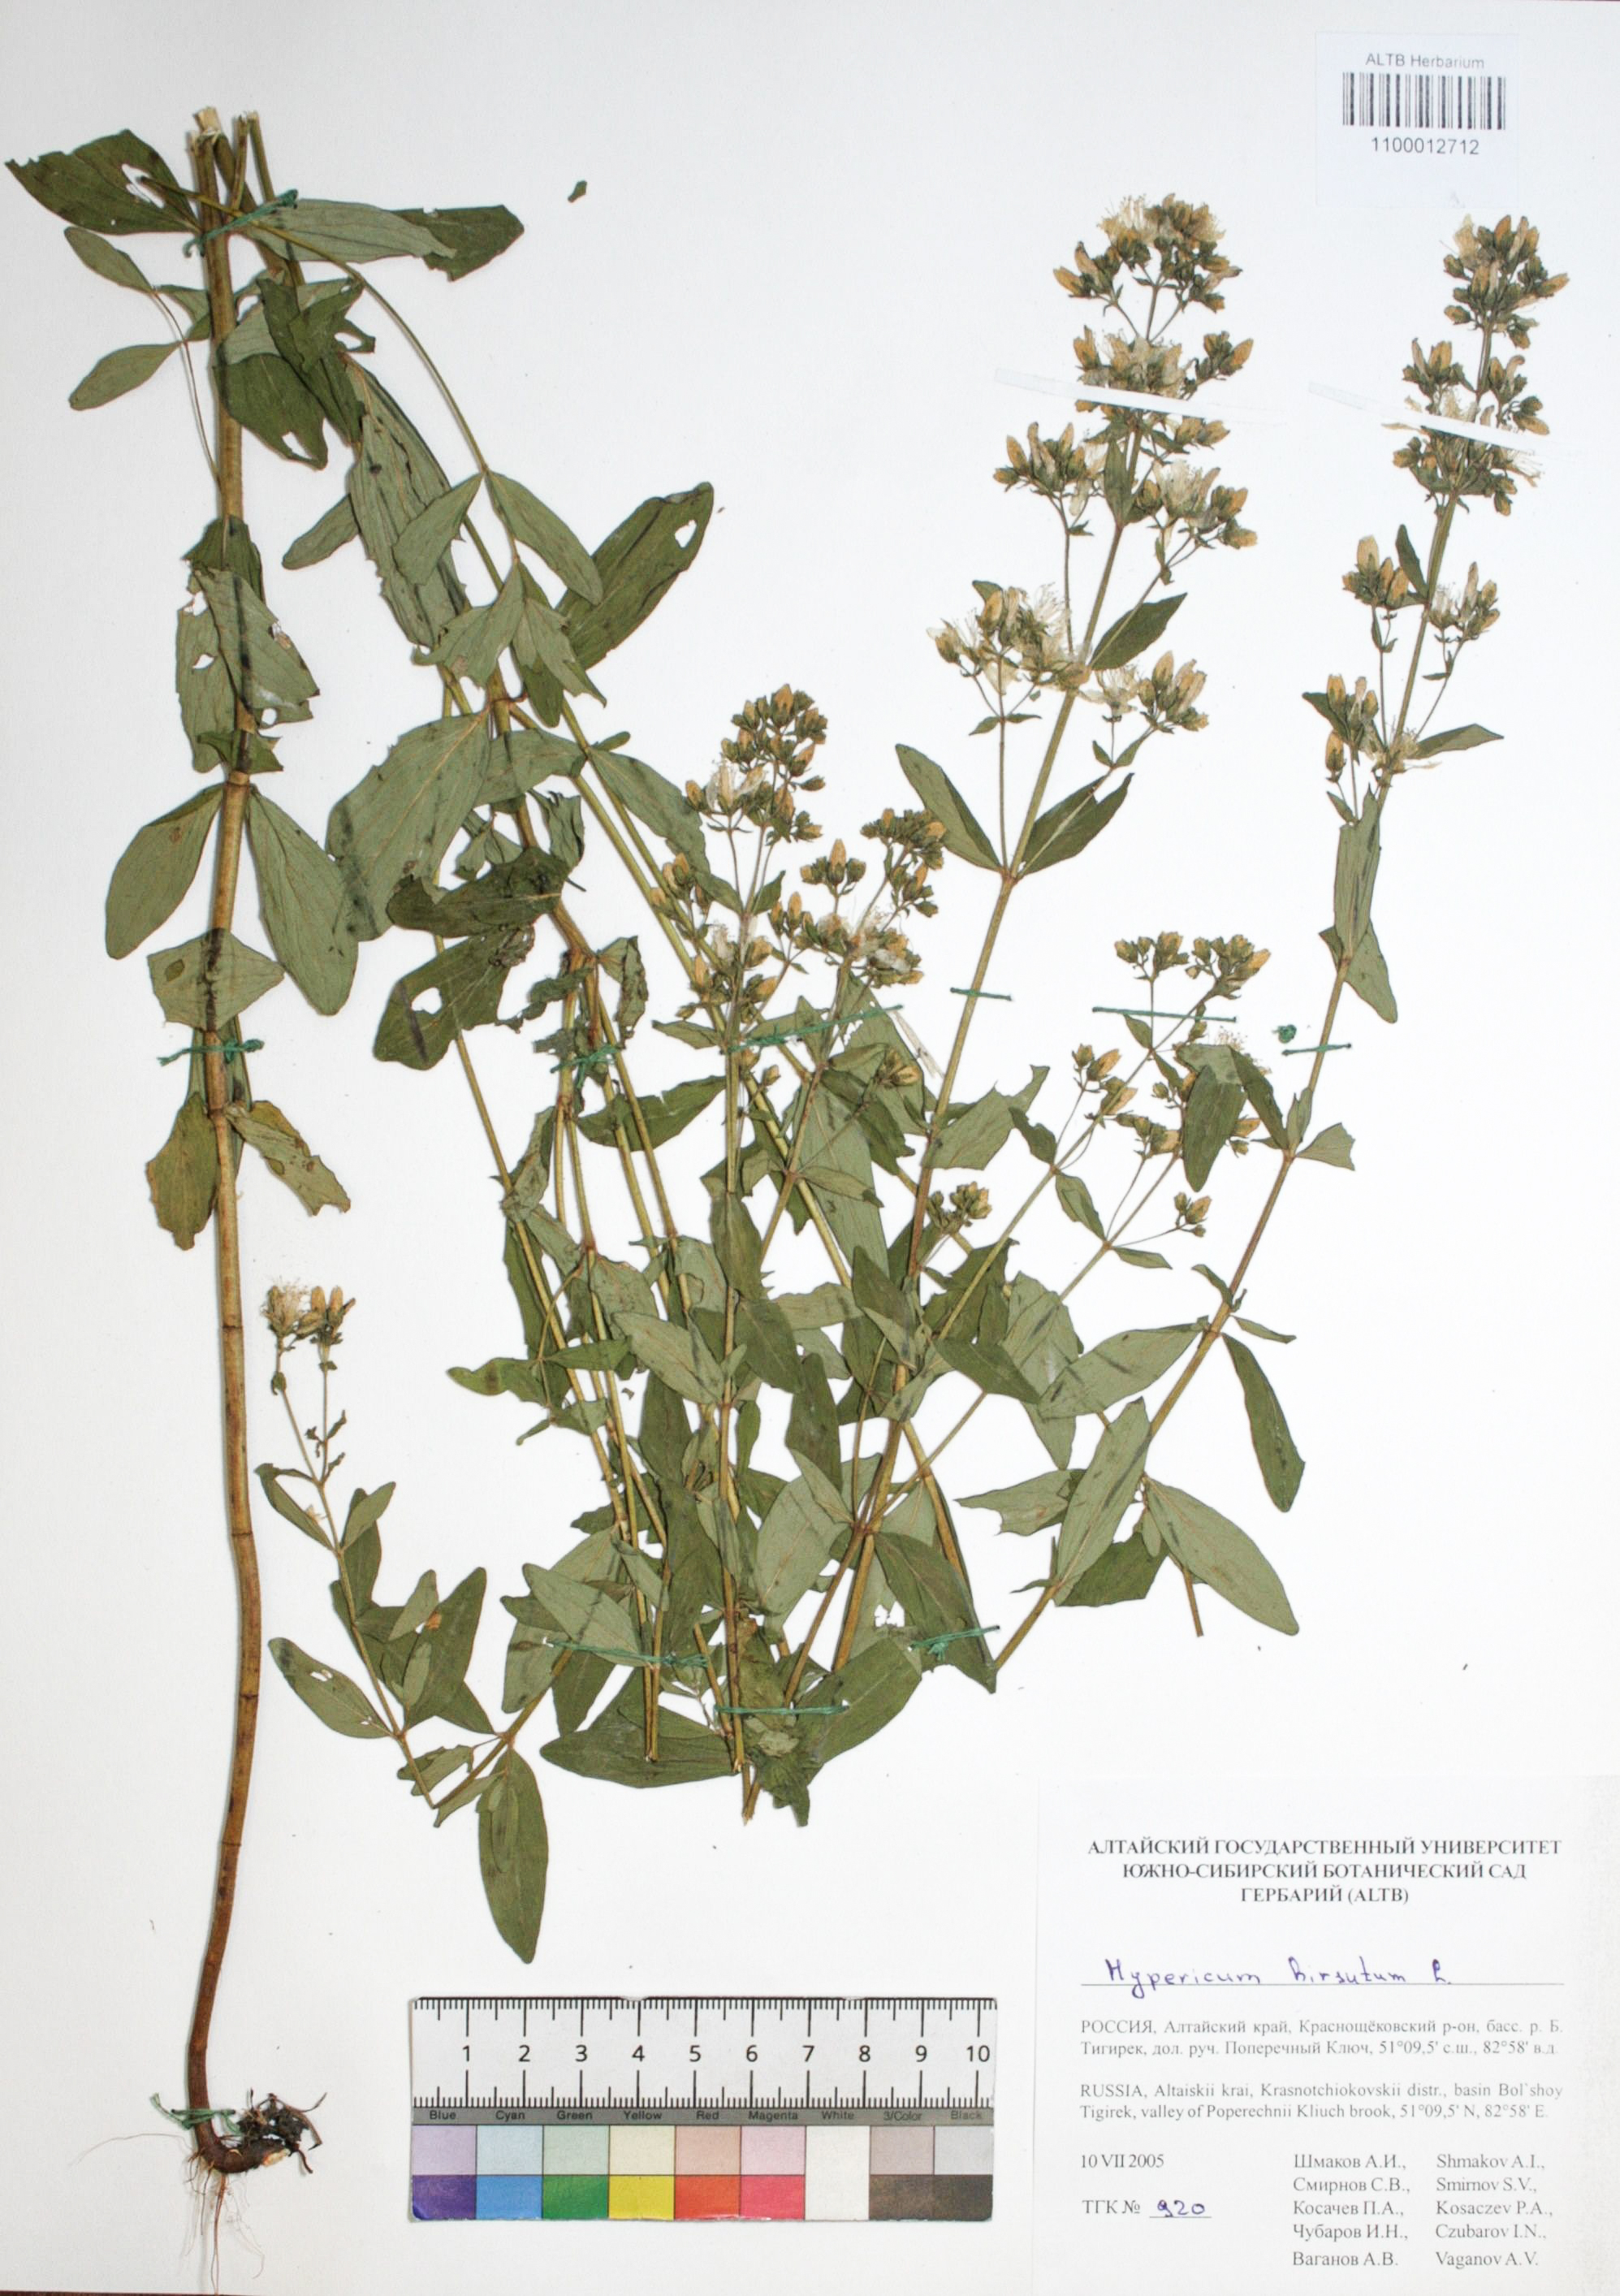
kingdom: Plantae
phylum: Tracheophyta
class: Magnoliopsida
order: Malpighiales
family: Hypericaceae
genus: Hypericum
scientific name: Hypericum hirsutum
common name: Hairy st. john's-wort
